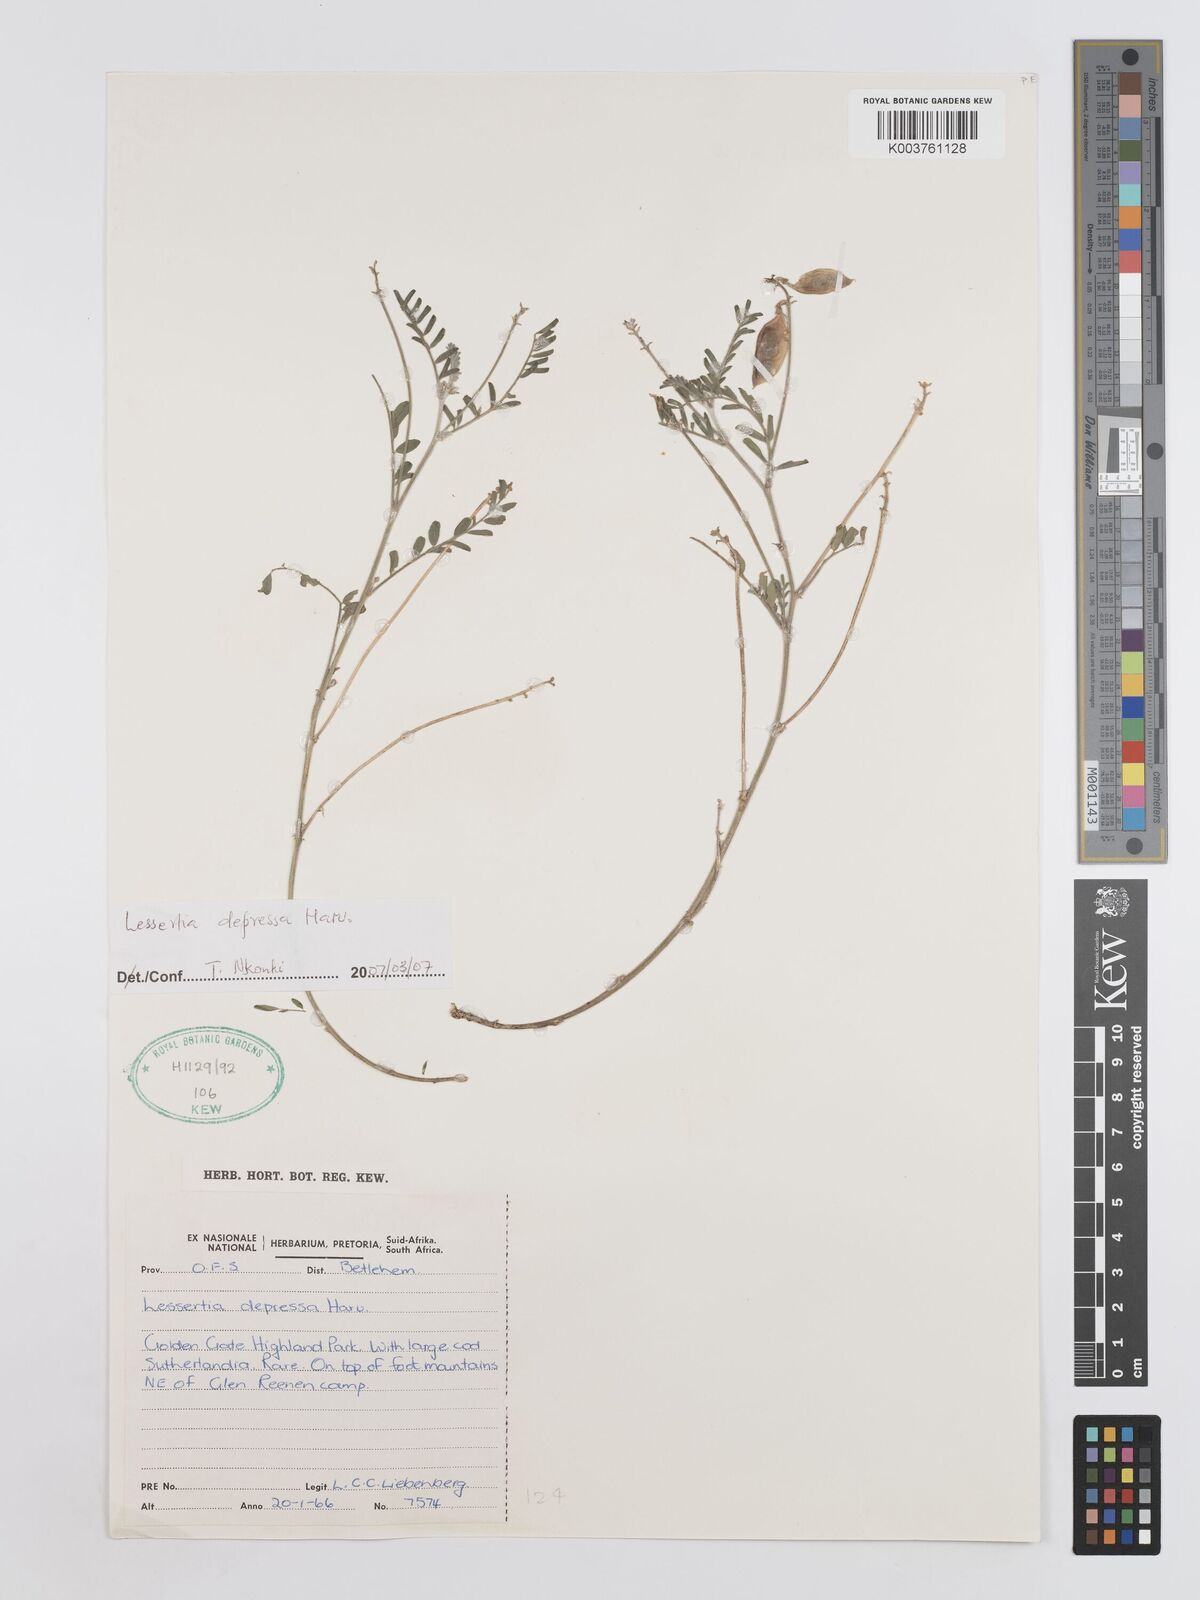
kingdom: Plantae
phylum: Tracheophyta
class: Magnoliopsida
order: Fabales
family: Fabaceae
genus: Lessertia
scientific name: Lessertia depressa
